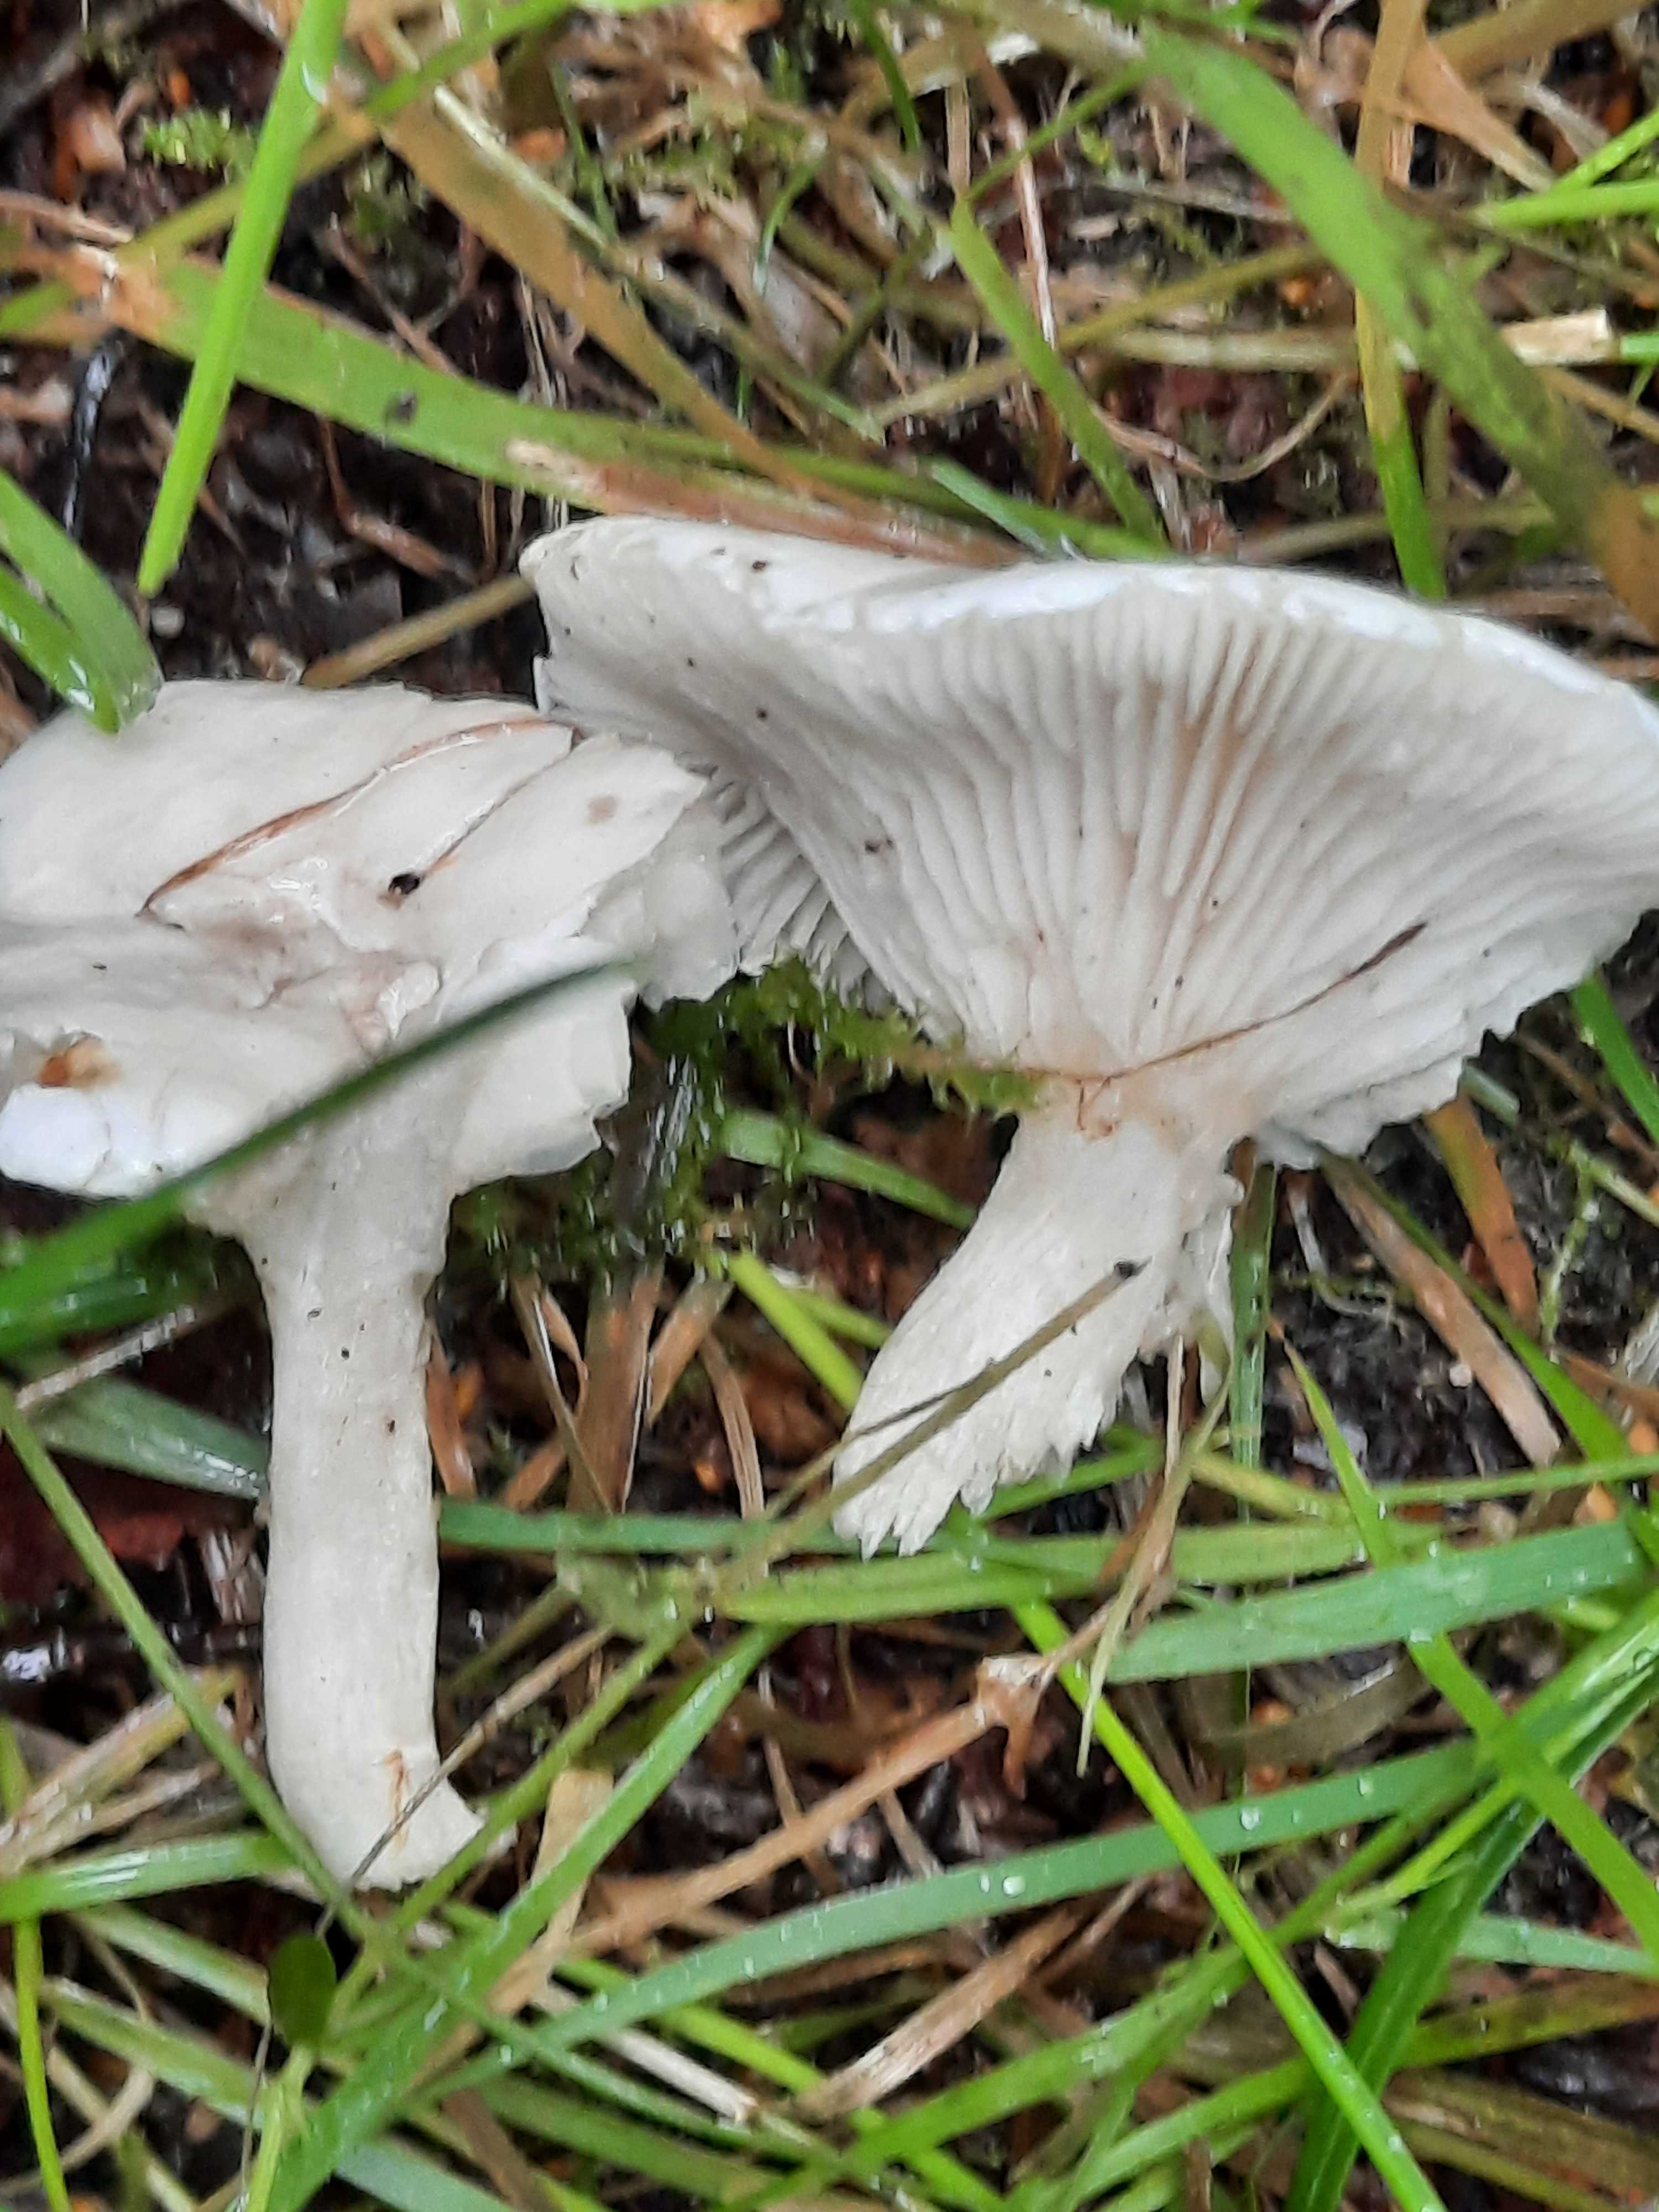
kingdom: Fungi
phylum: Basidiomycota
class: Agaricomycetes
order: Agaricales
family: Entolomataceae
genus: Clitopilus
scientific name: Clitopilus prunulus
